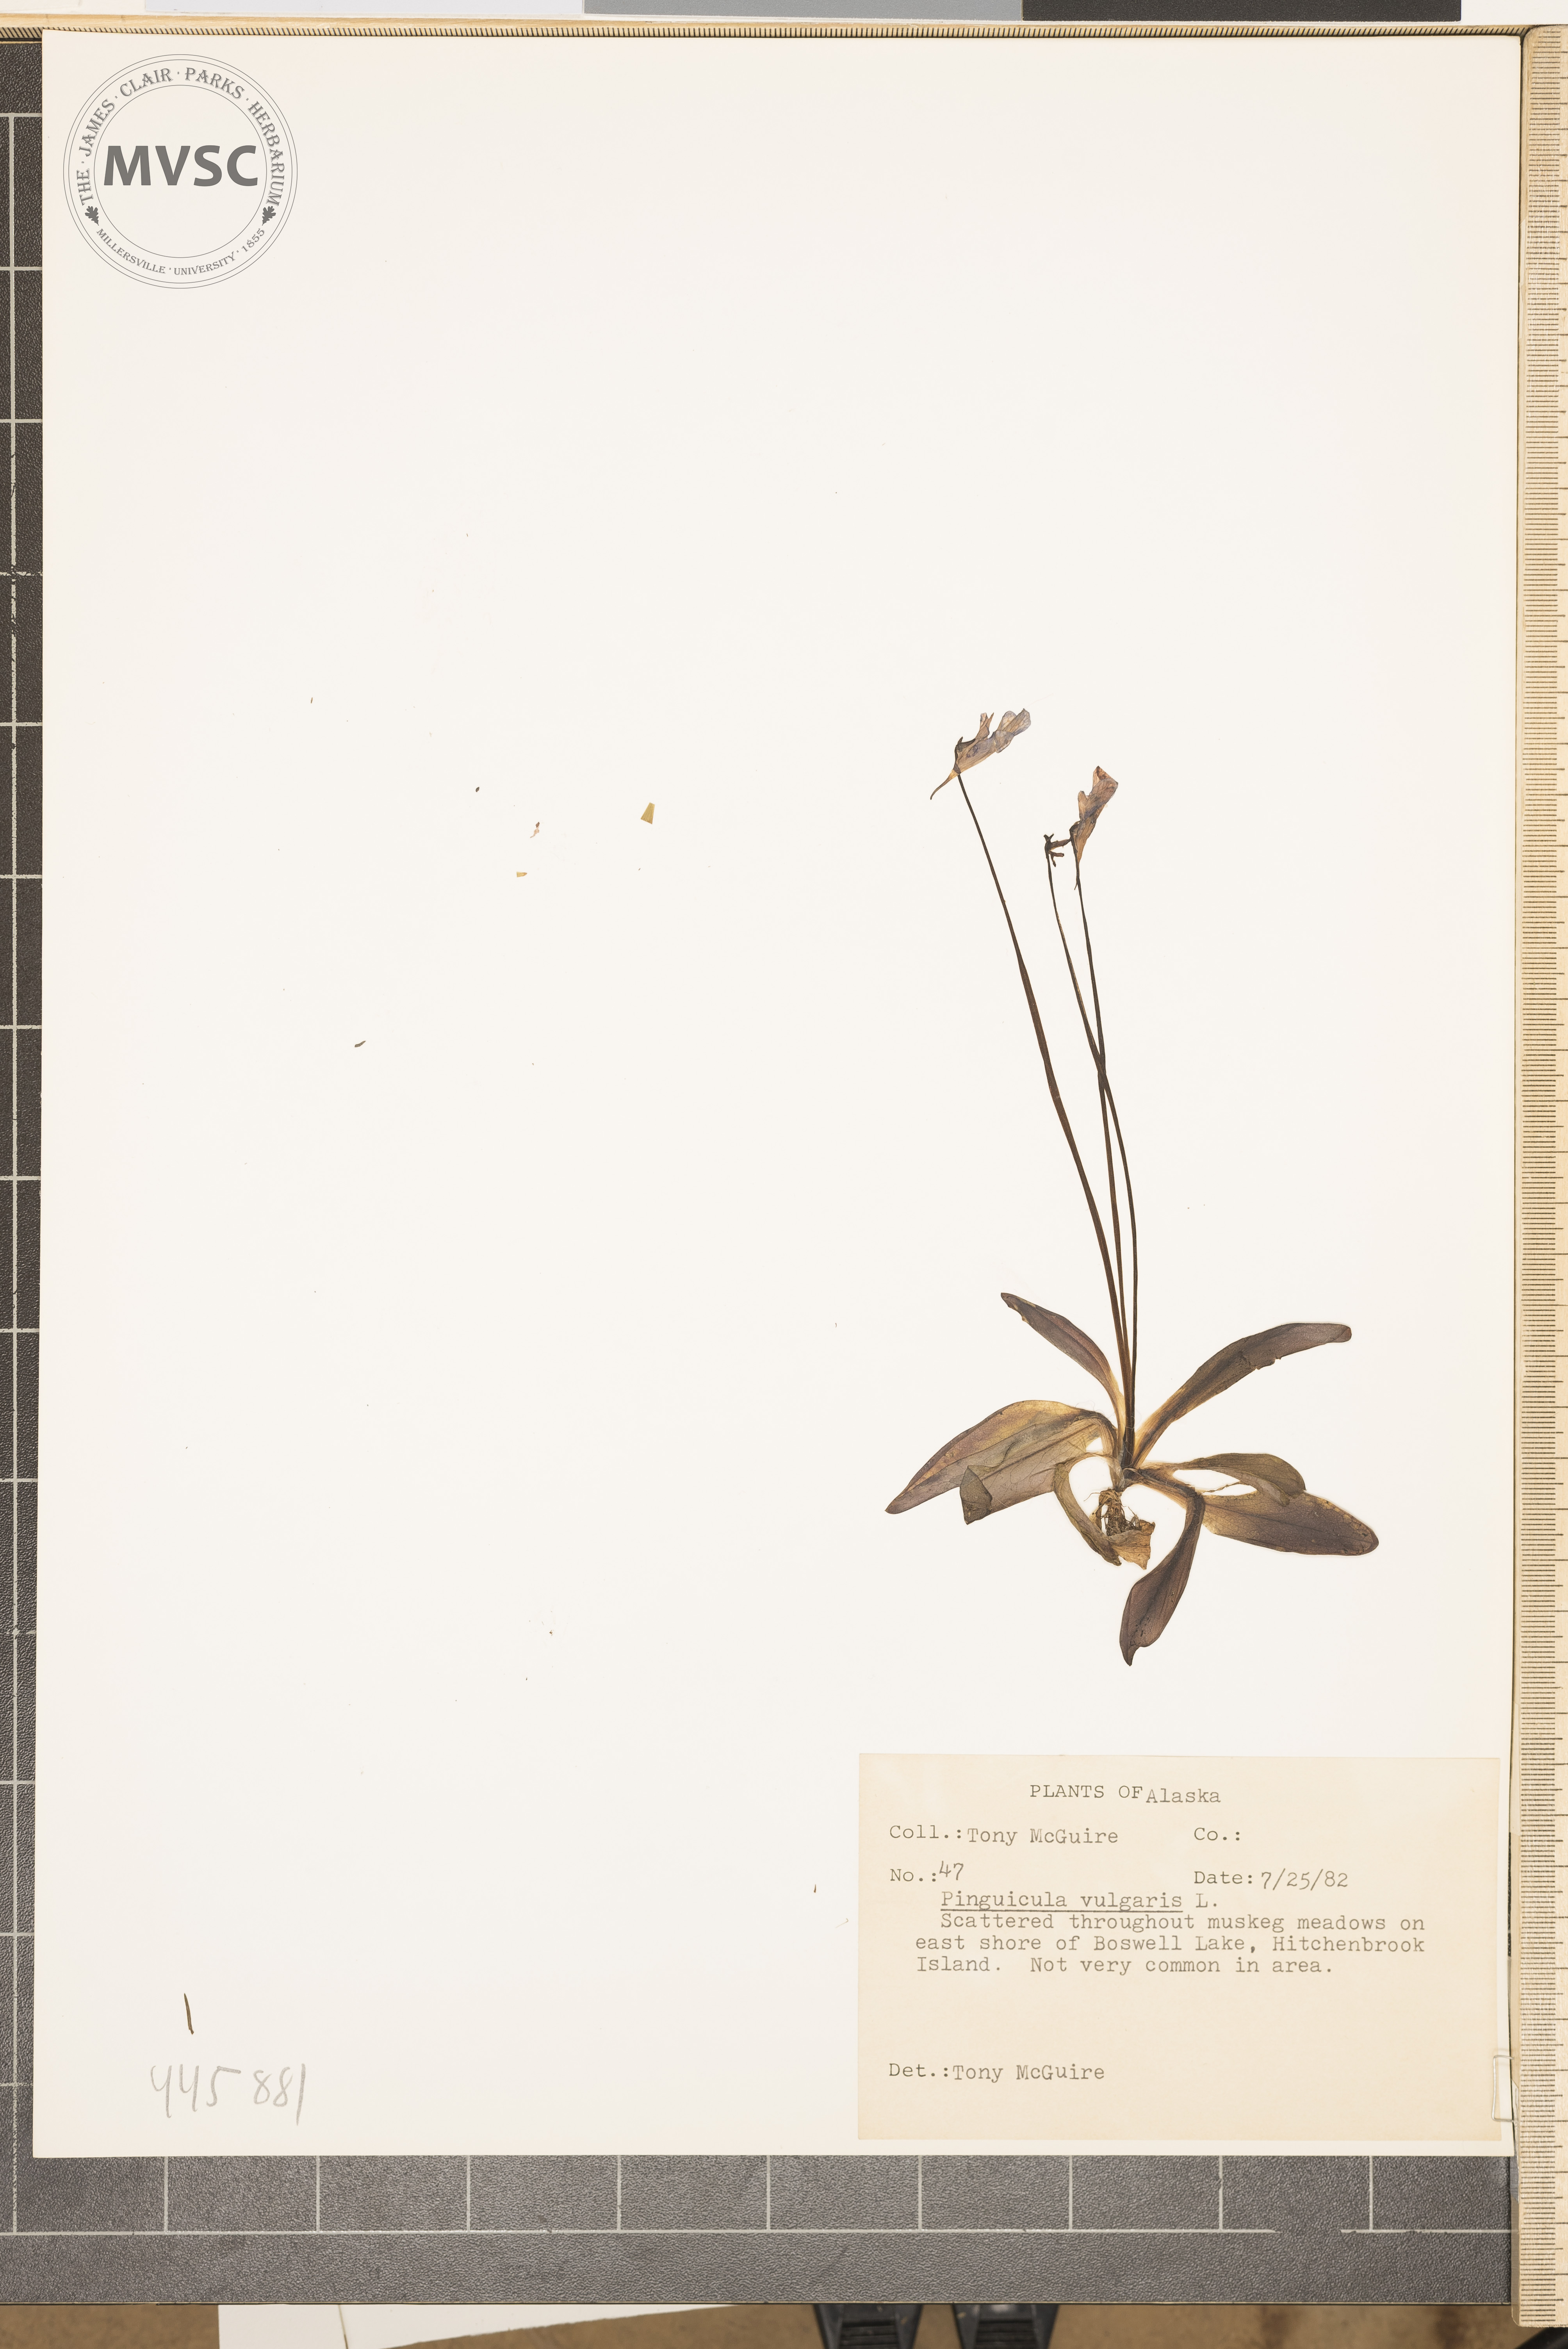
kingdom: Plantae
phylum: Tracheophyta
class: Magnoliopsida
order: Lamiales
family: Lentibulariaceae
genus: Pinguicula
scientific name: Pinguicula vulgaris
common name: Common butterwort
